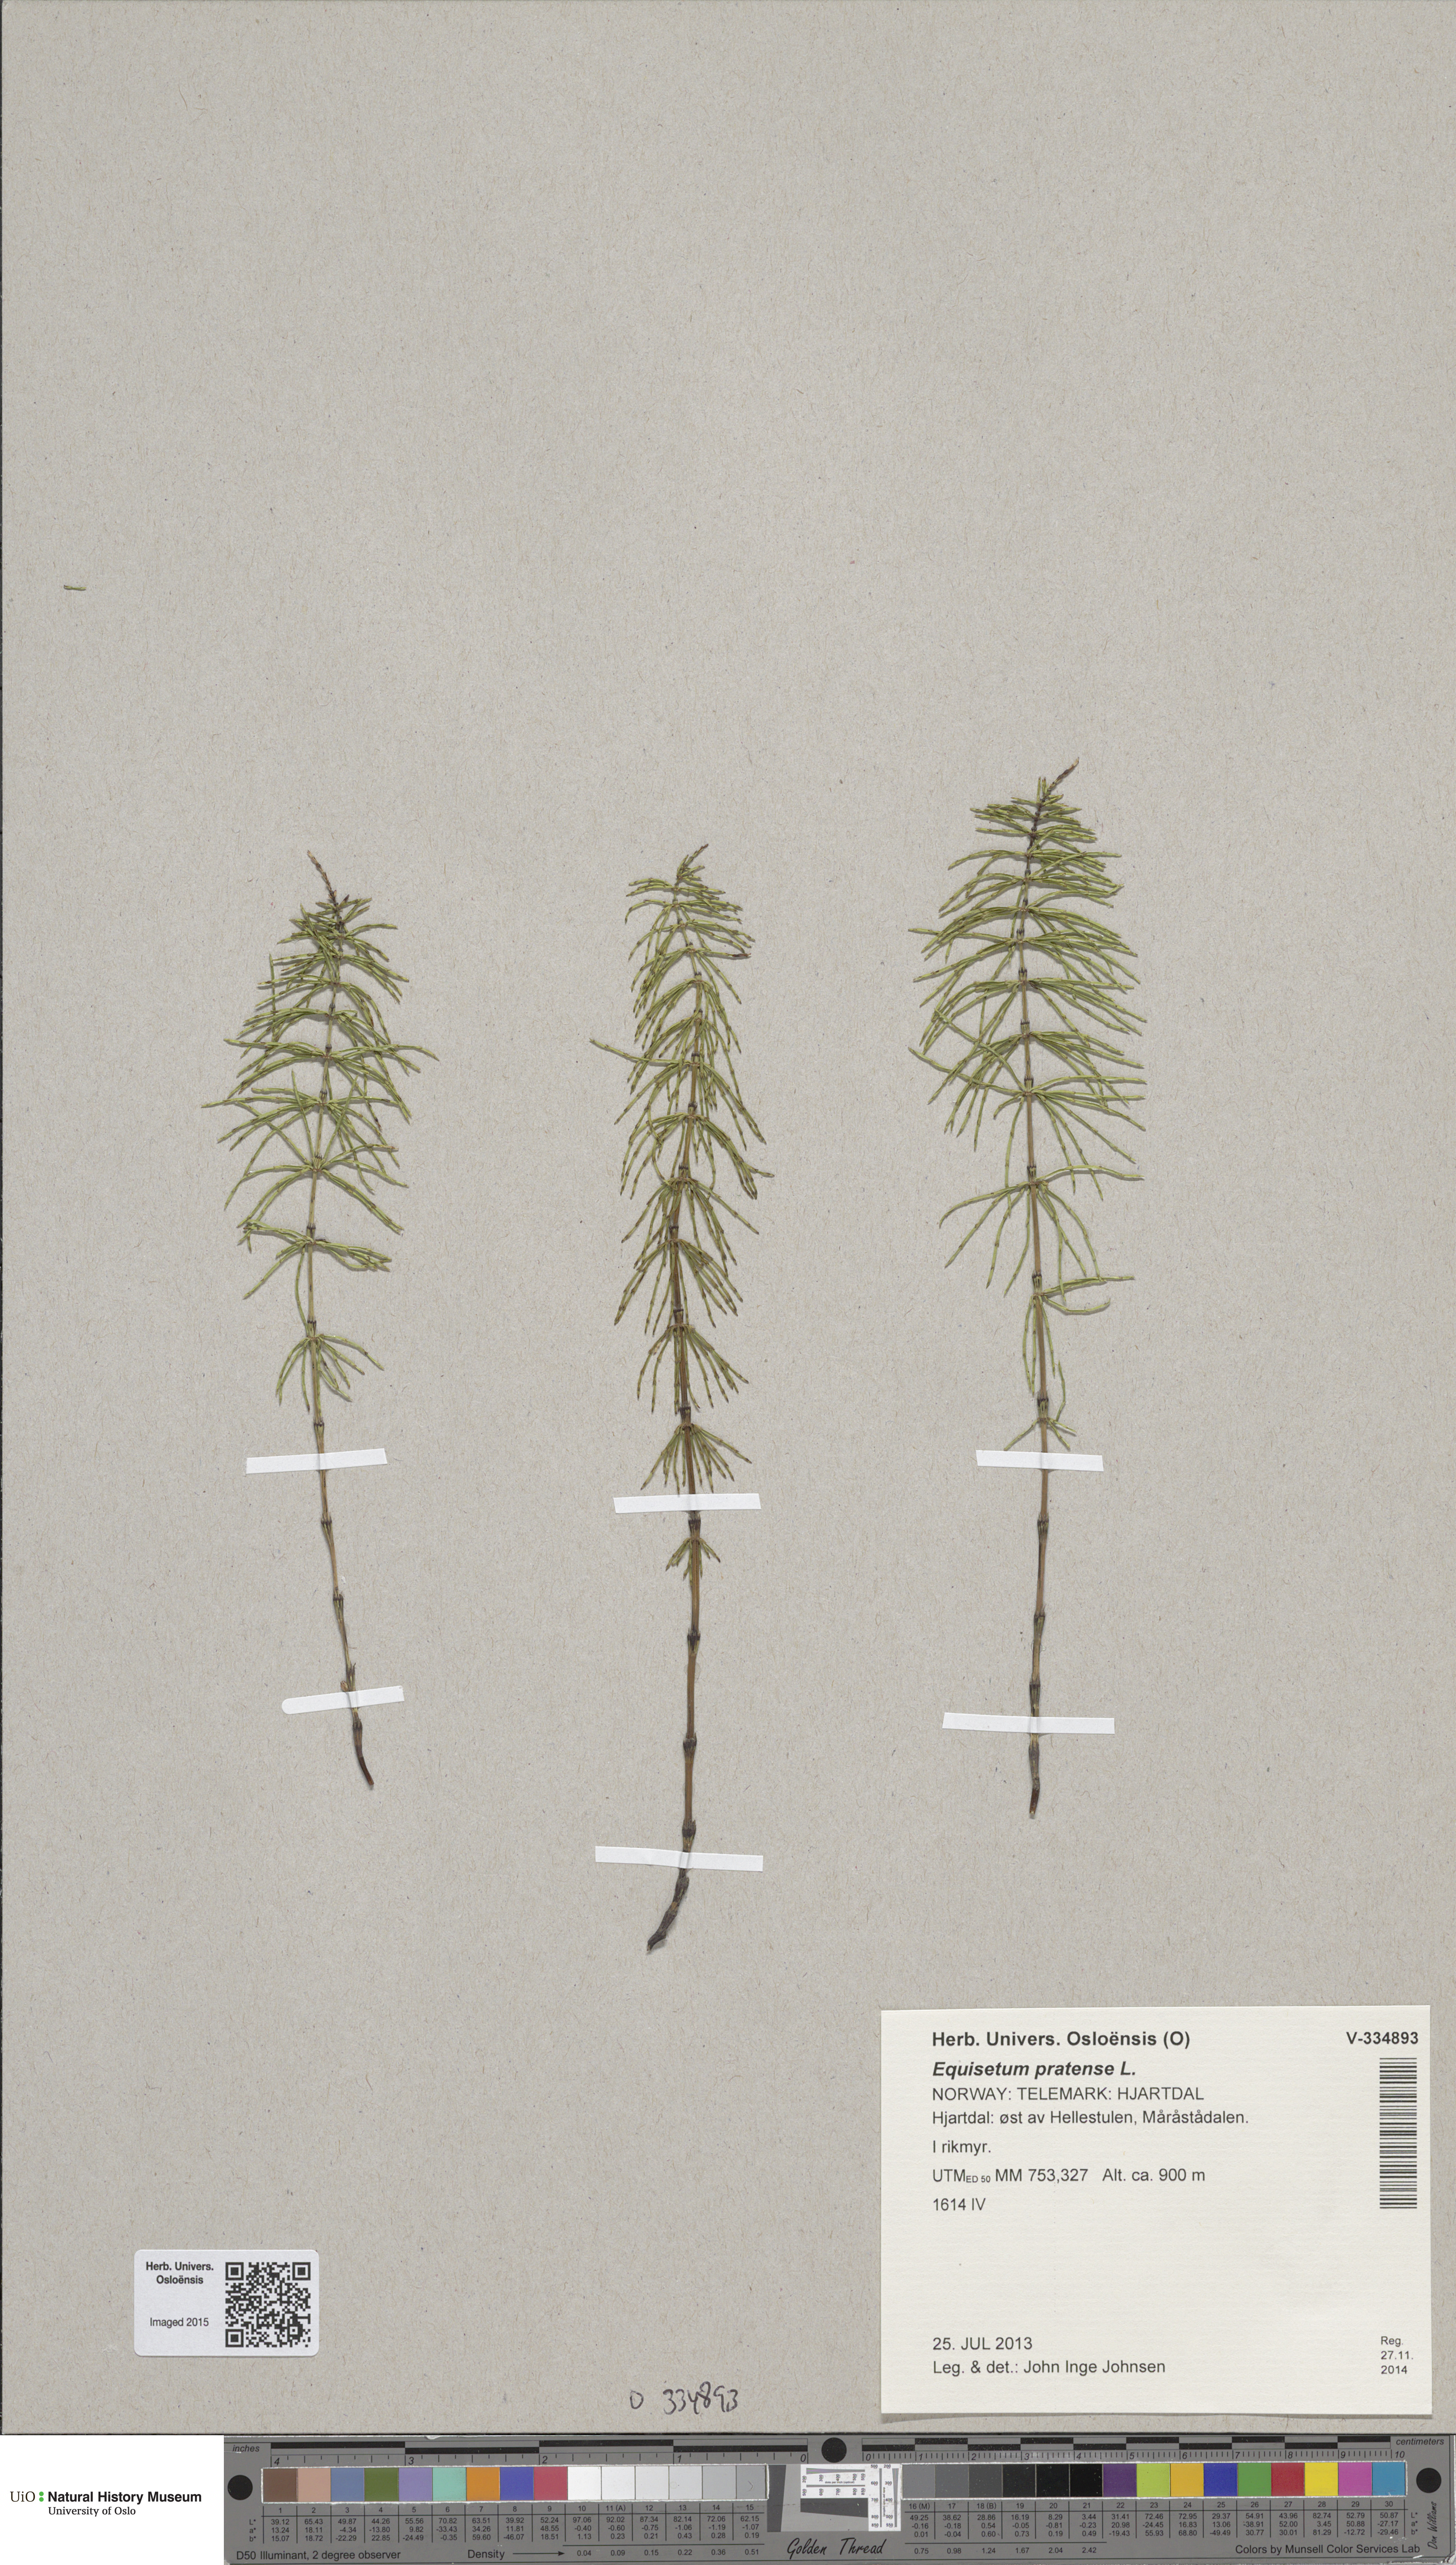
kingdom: Plantae
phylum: Tracheophyta
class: Polypodiopsida
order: Equisetales
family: Equisetaceae
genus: Equisetum
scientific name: Equisetum pratense
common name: Meadow horsetail
